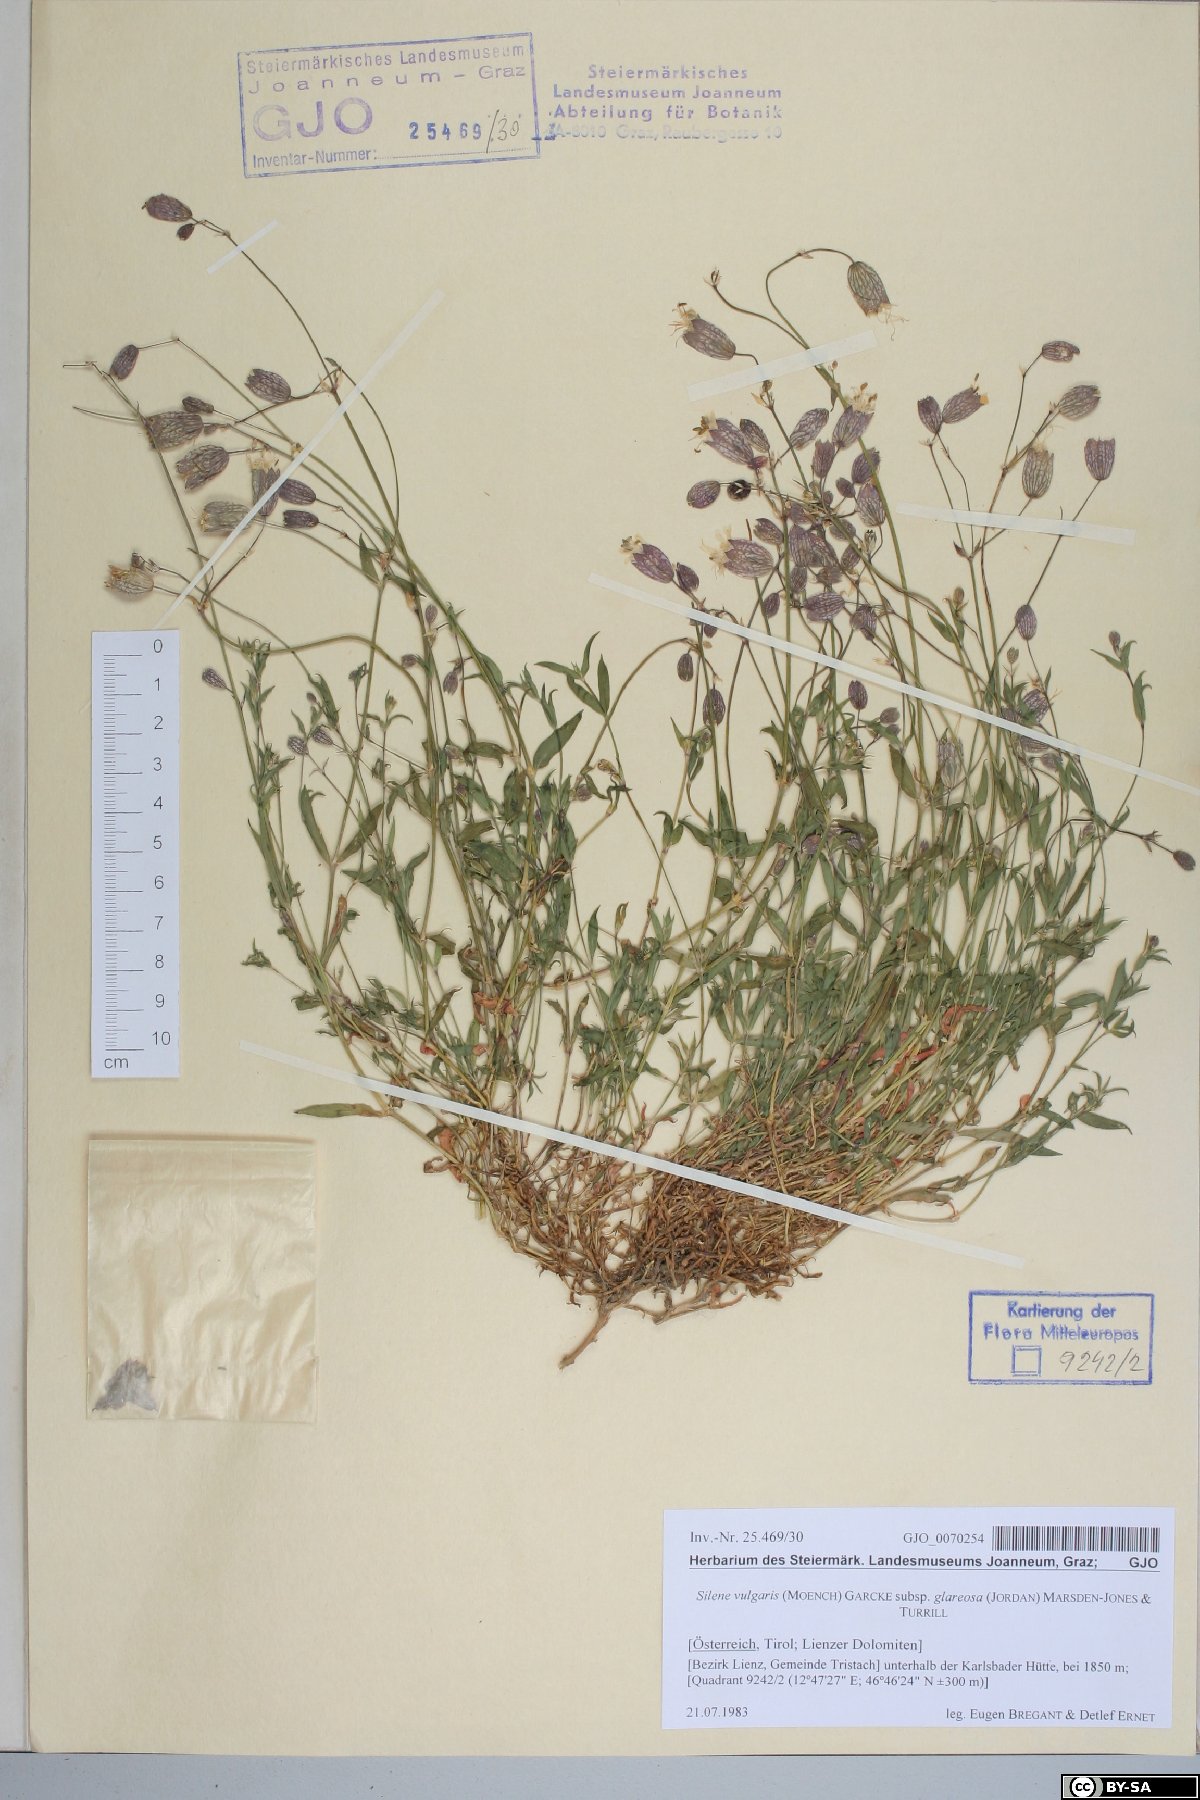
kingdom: Plantae
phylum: Tracheophyta
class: Magnoliopsida
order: Caryophyllales
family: Caryophyllaceae
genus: Silene
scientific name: Silene glareosa
